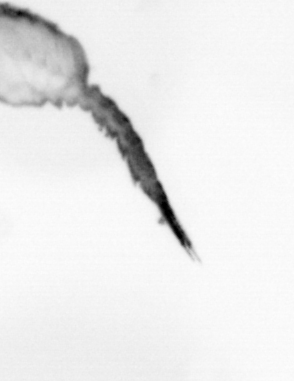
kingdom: Animalia
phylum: Arthropoda
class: Copepoda
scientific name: Copepoda
